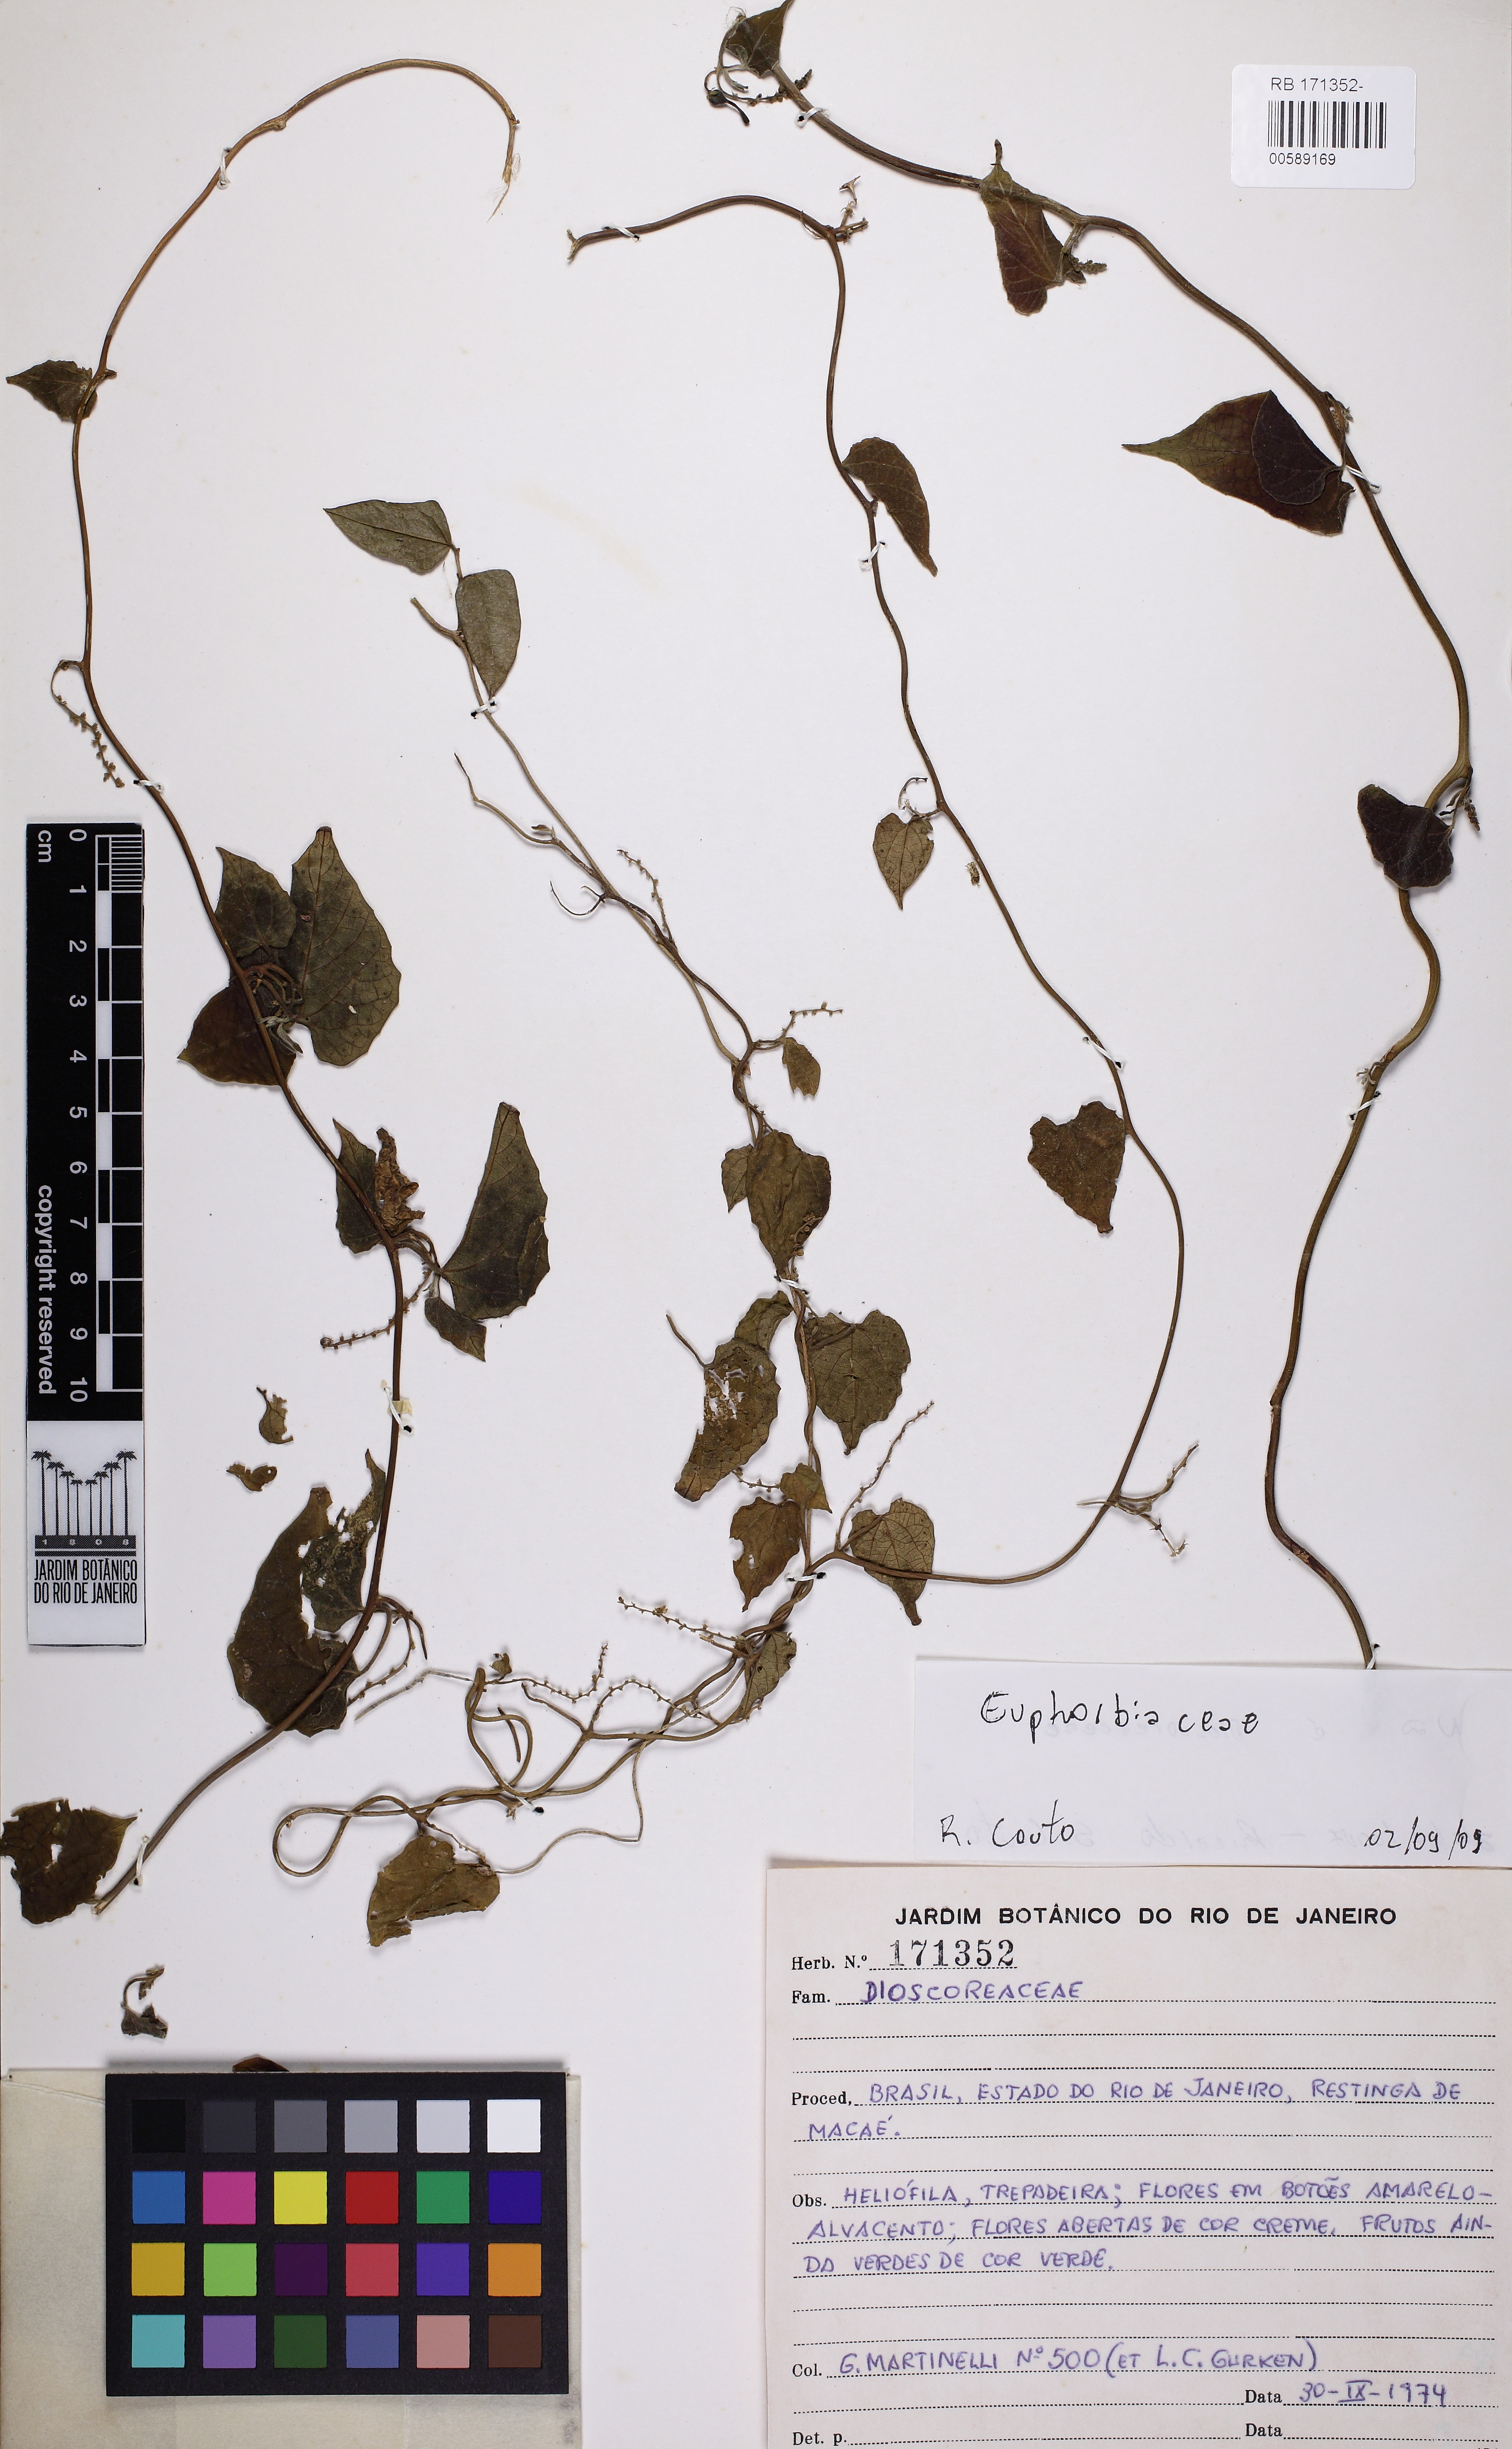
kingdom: Plantae
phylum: Tracheophyta
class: Magnoliopsida
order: Malpighiales
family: Euphorbiaceae
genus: Romanoa
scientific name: Romanoa tamnoides
